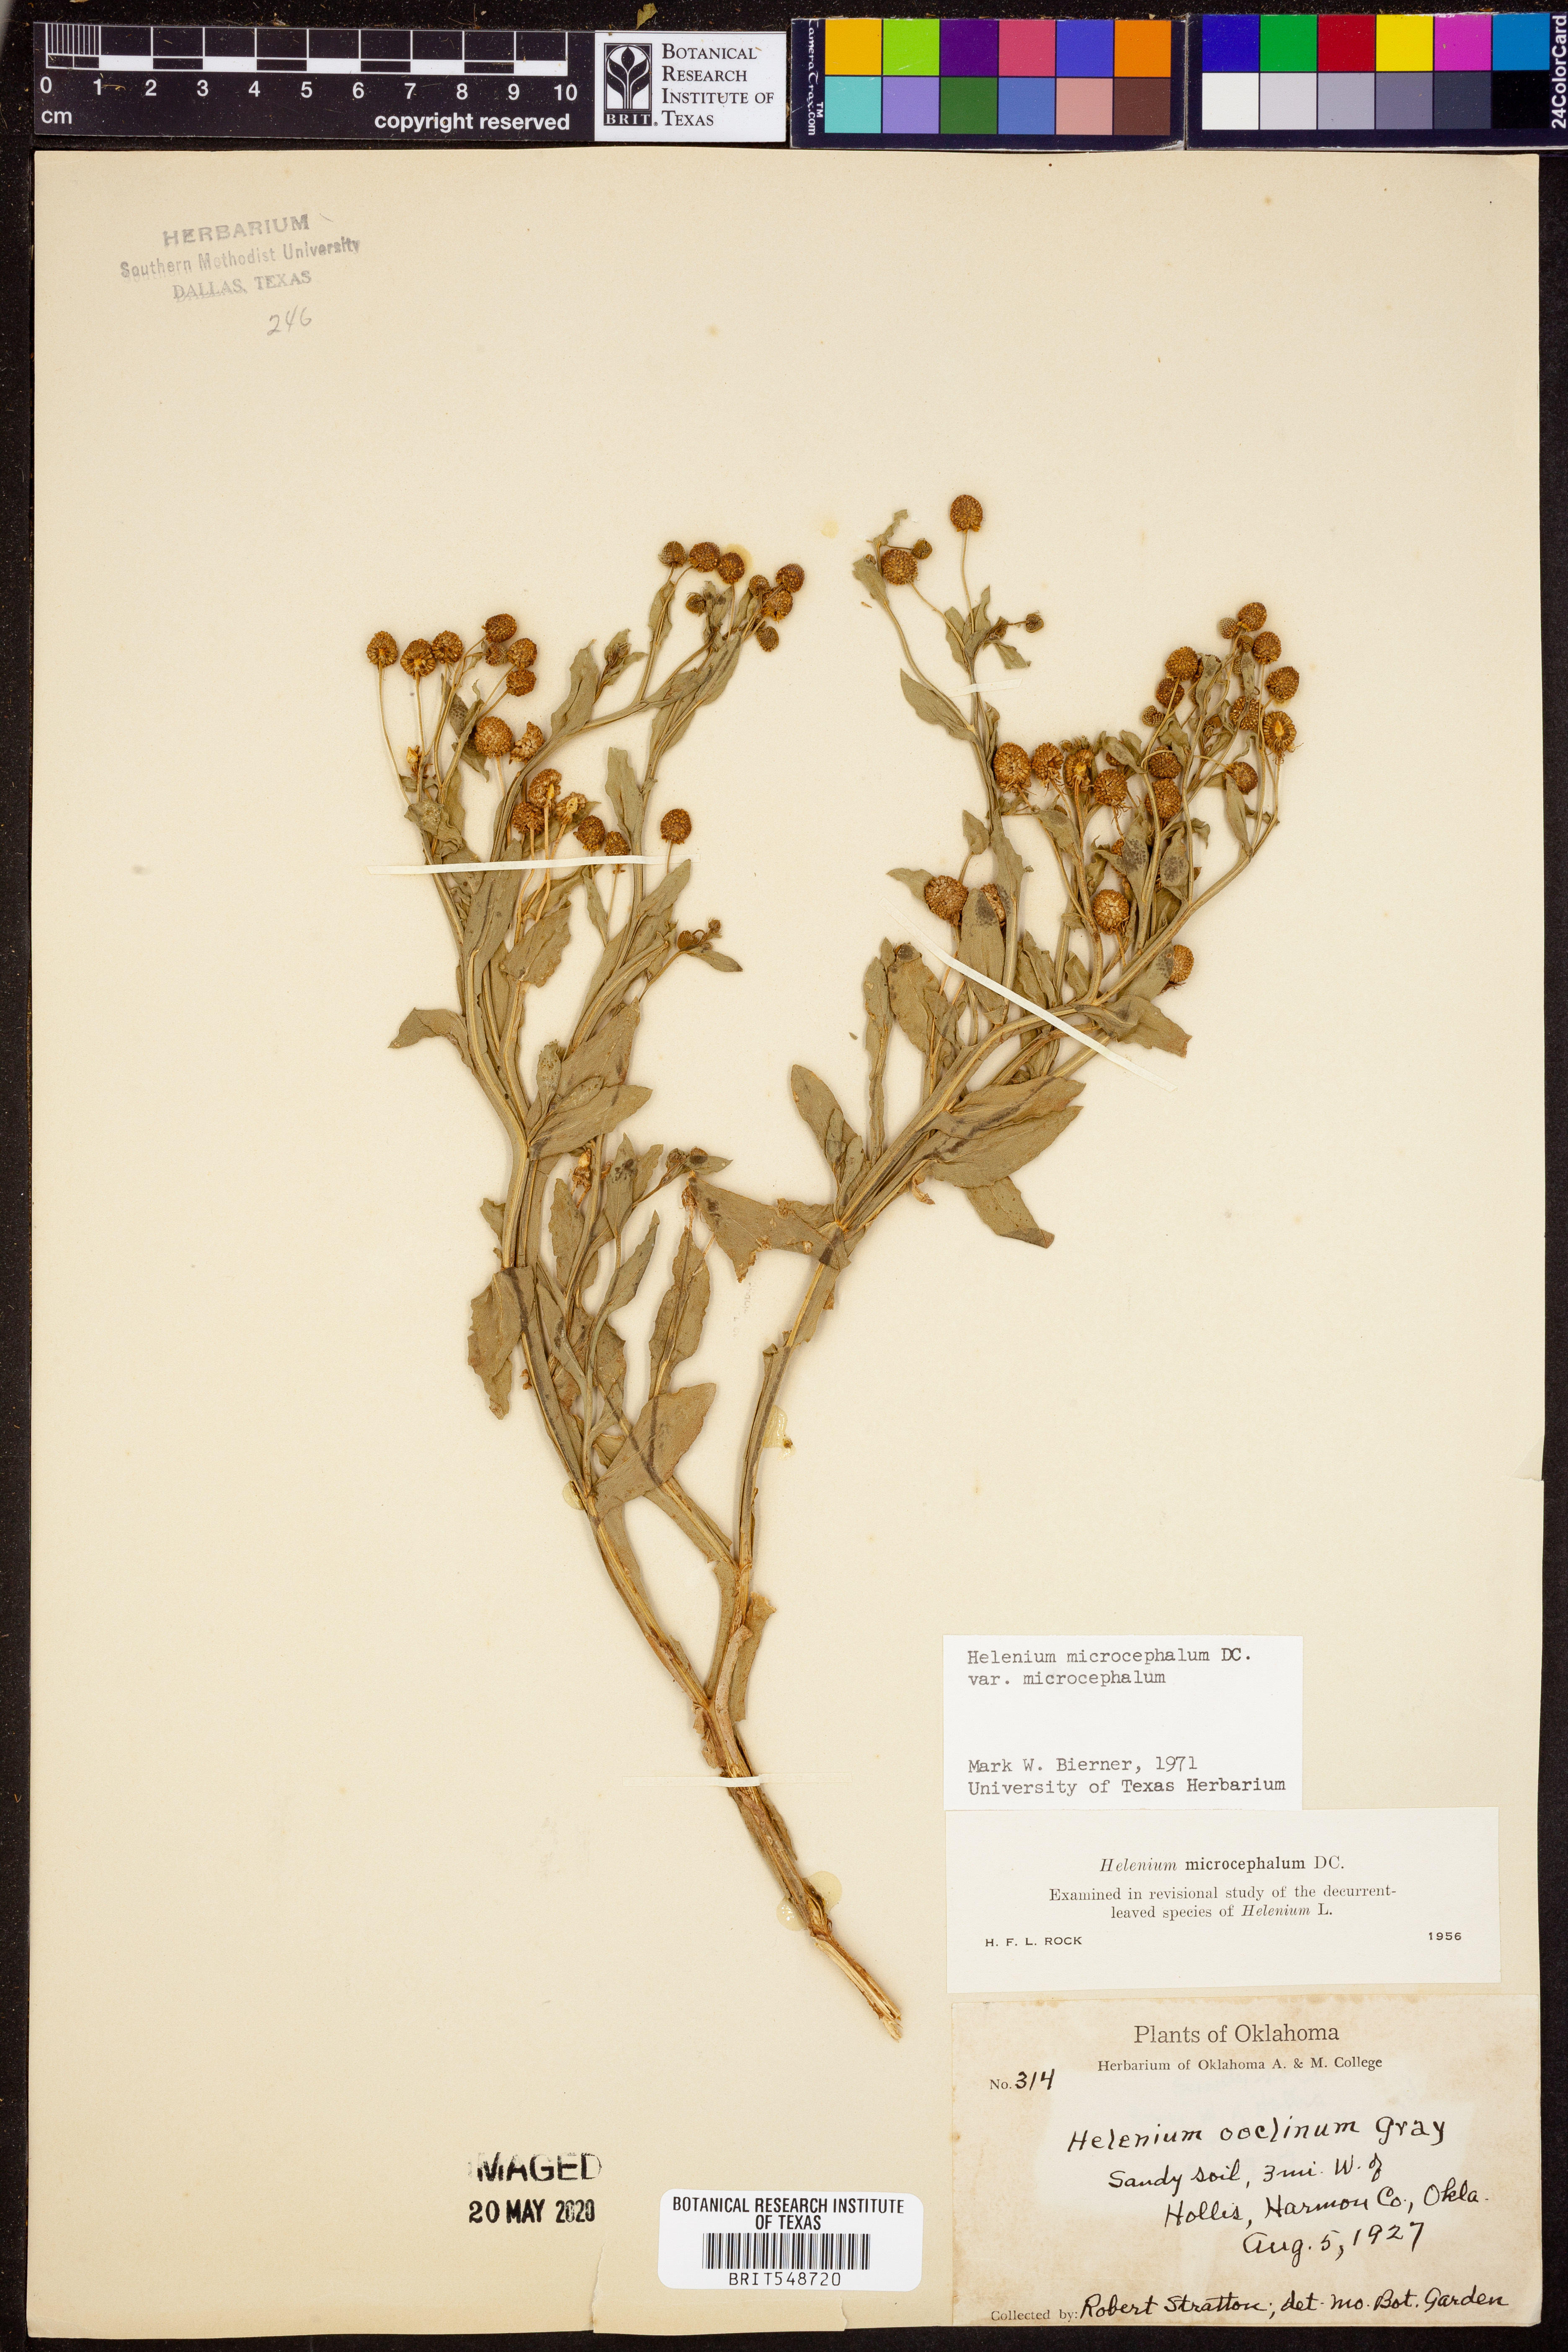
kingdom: Plantae
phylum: Tracheophyta
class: Magnoliopsida
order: Asterales
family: Asteraceae
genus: Helenium
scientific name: Helenium microcephalum
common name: Smallhead sneezeweed
